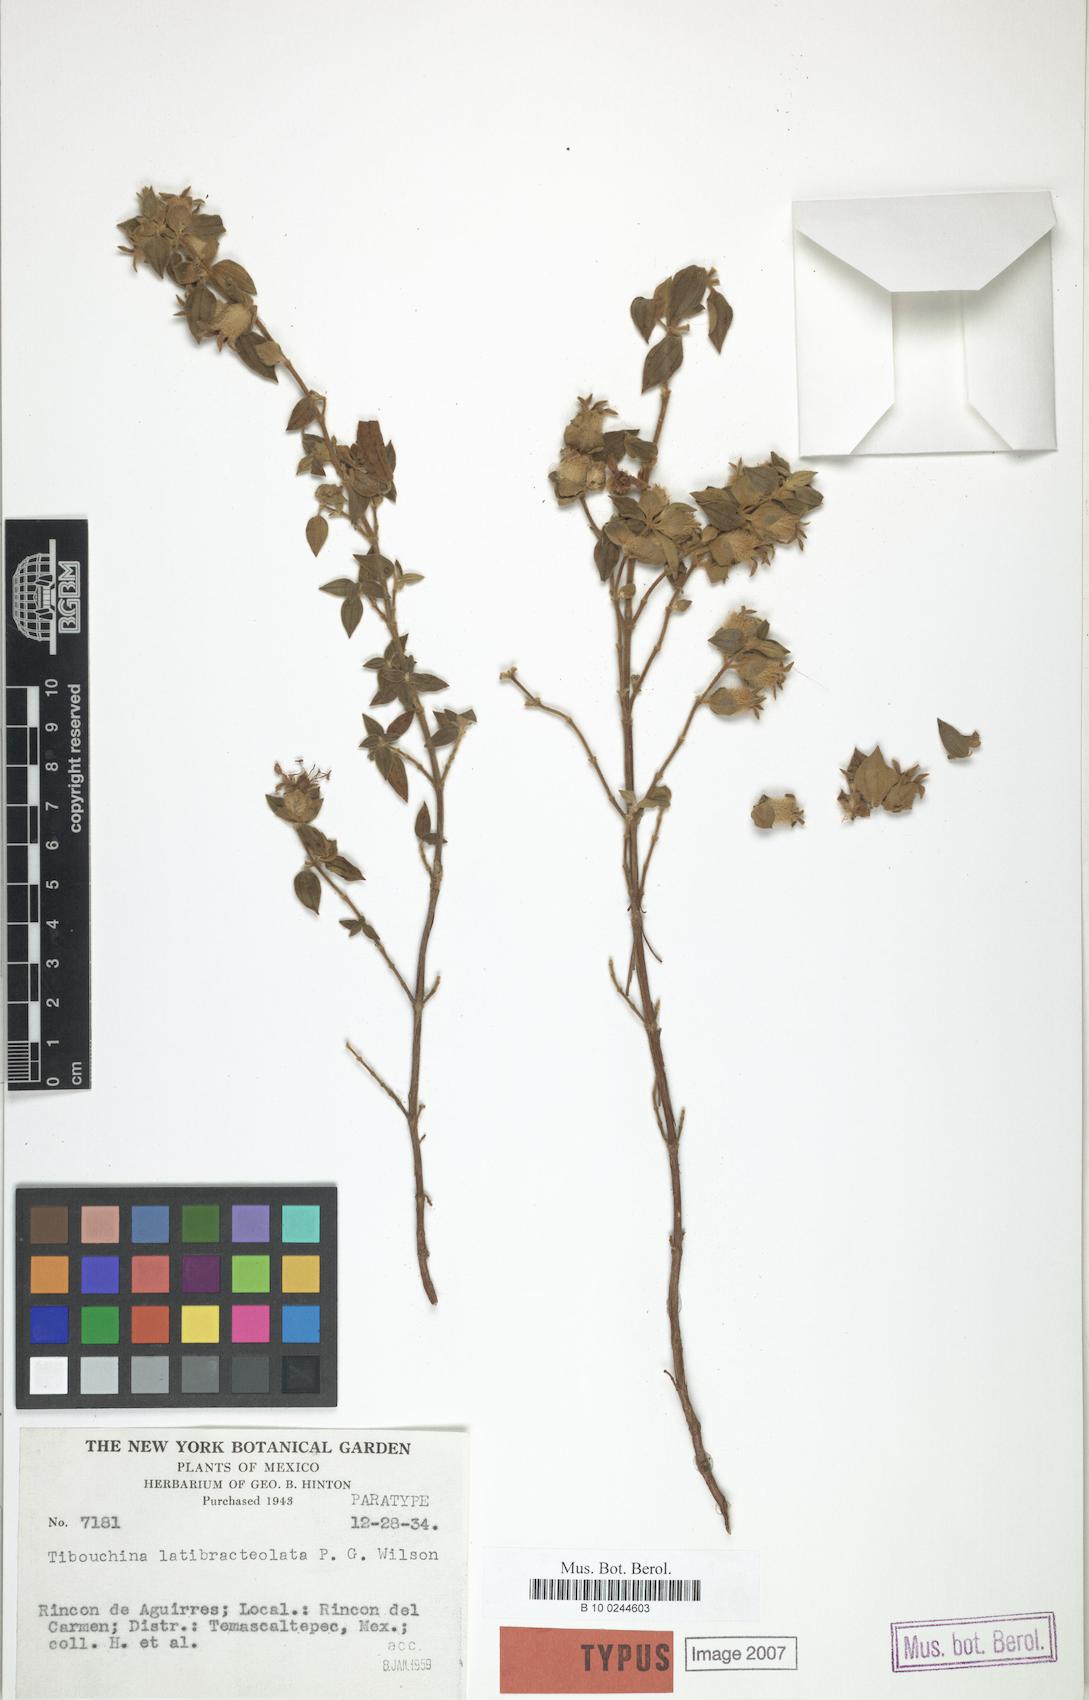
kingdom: Plantae
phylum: Tracheophyta
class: Magnoliopsida
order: Myrtales
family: Melastomataceae
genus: Chaetogastra
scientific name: Chaetogastra latibracteolata
